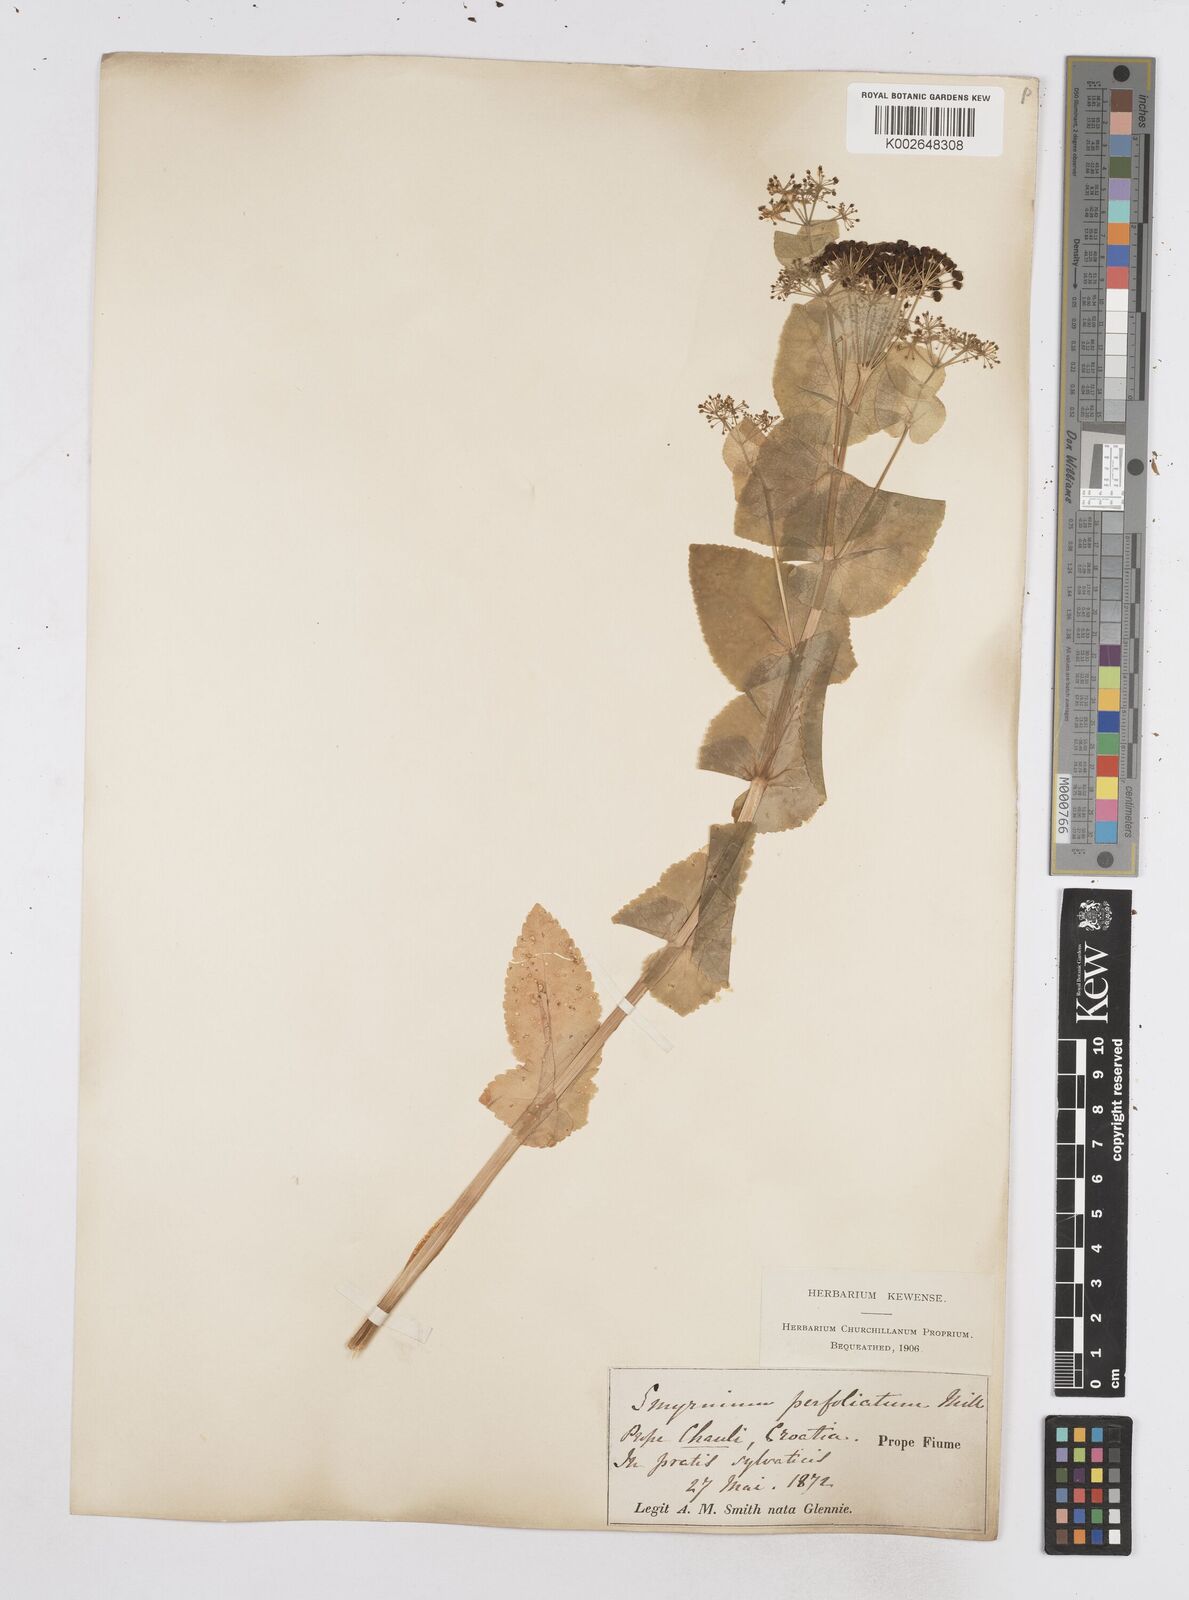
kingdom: Plantae
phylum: Tracheophyta
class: Magnoliopsida
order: Apiales
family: Apiaceae
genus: Smyrnium
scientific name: Smyrnium perfoliatum
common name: Perfoliate alexanders
